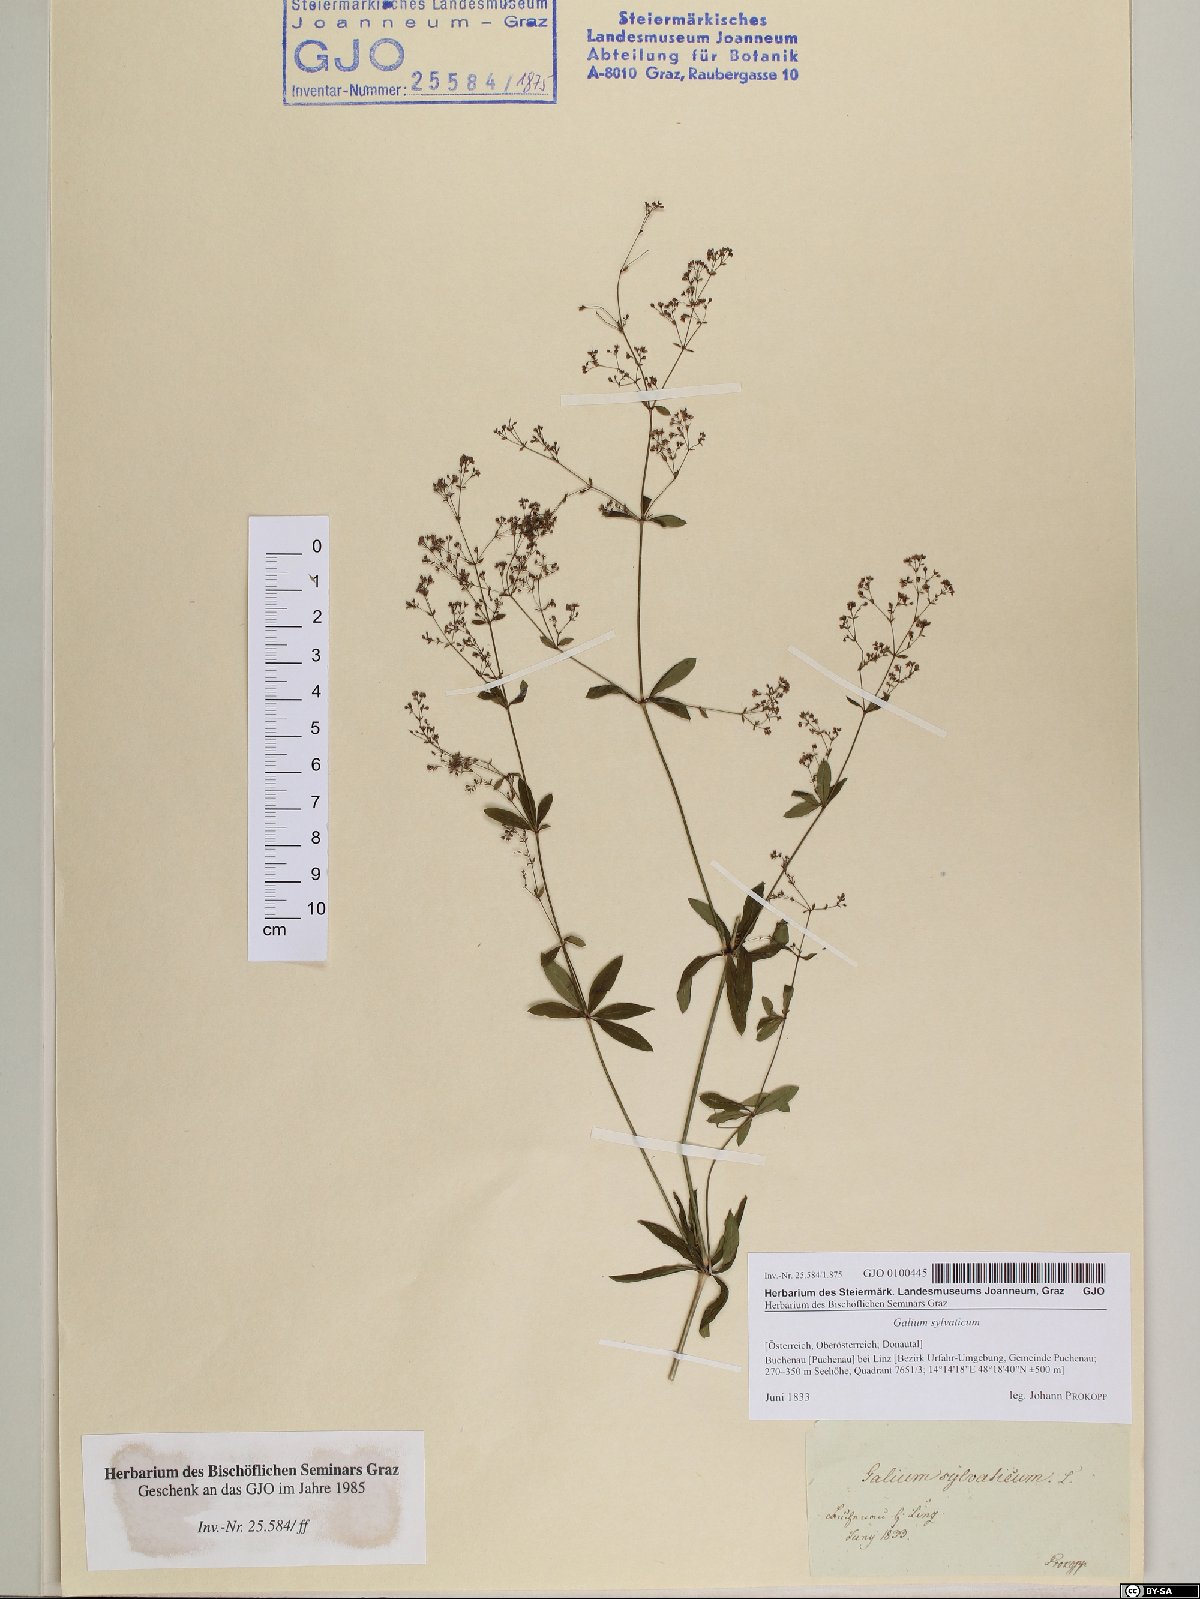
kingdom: Plantae
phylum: Tracheophyta
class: Magnoliopsida
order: Gentianales
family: Rubiaceae
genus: Galium
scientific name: Galium sylvaticum
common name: Wood bedstraw
